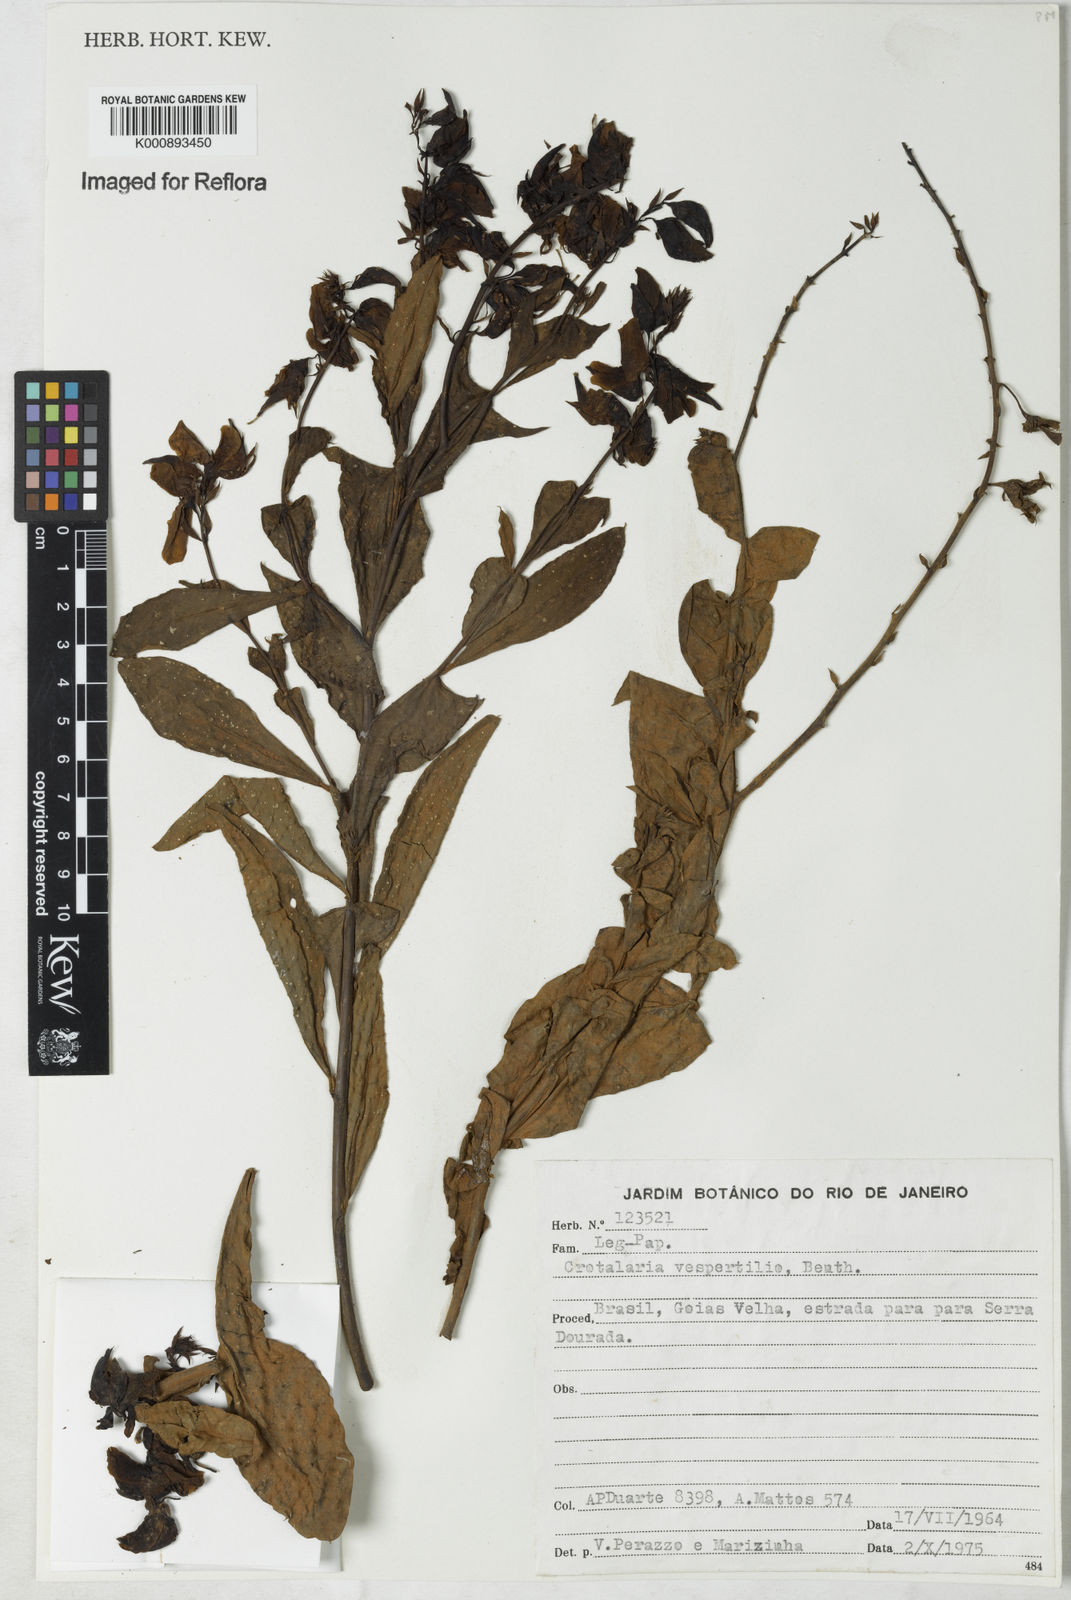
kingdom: Plantae
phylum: Tracheophyta
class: Magnoliopsida
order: Fabales
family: Fabaceae
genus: Crotalaria
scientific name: Crotalaria vespertilio
